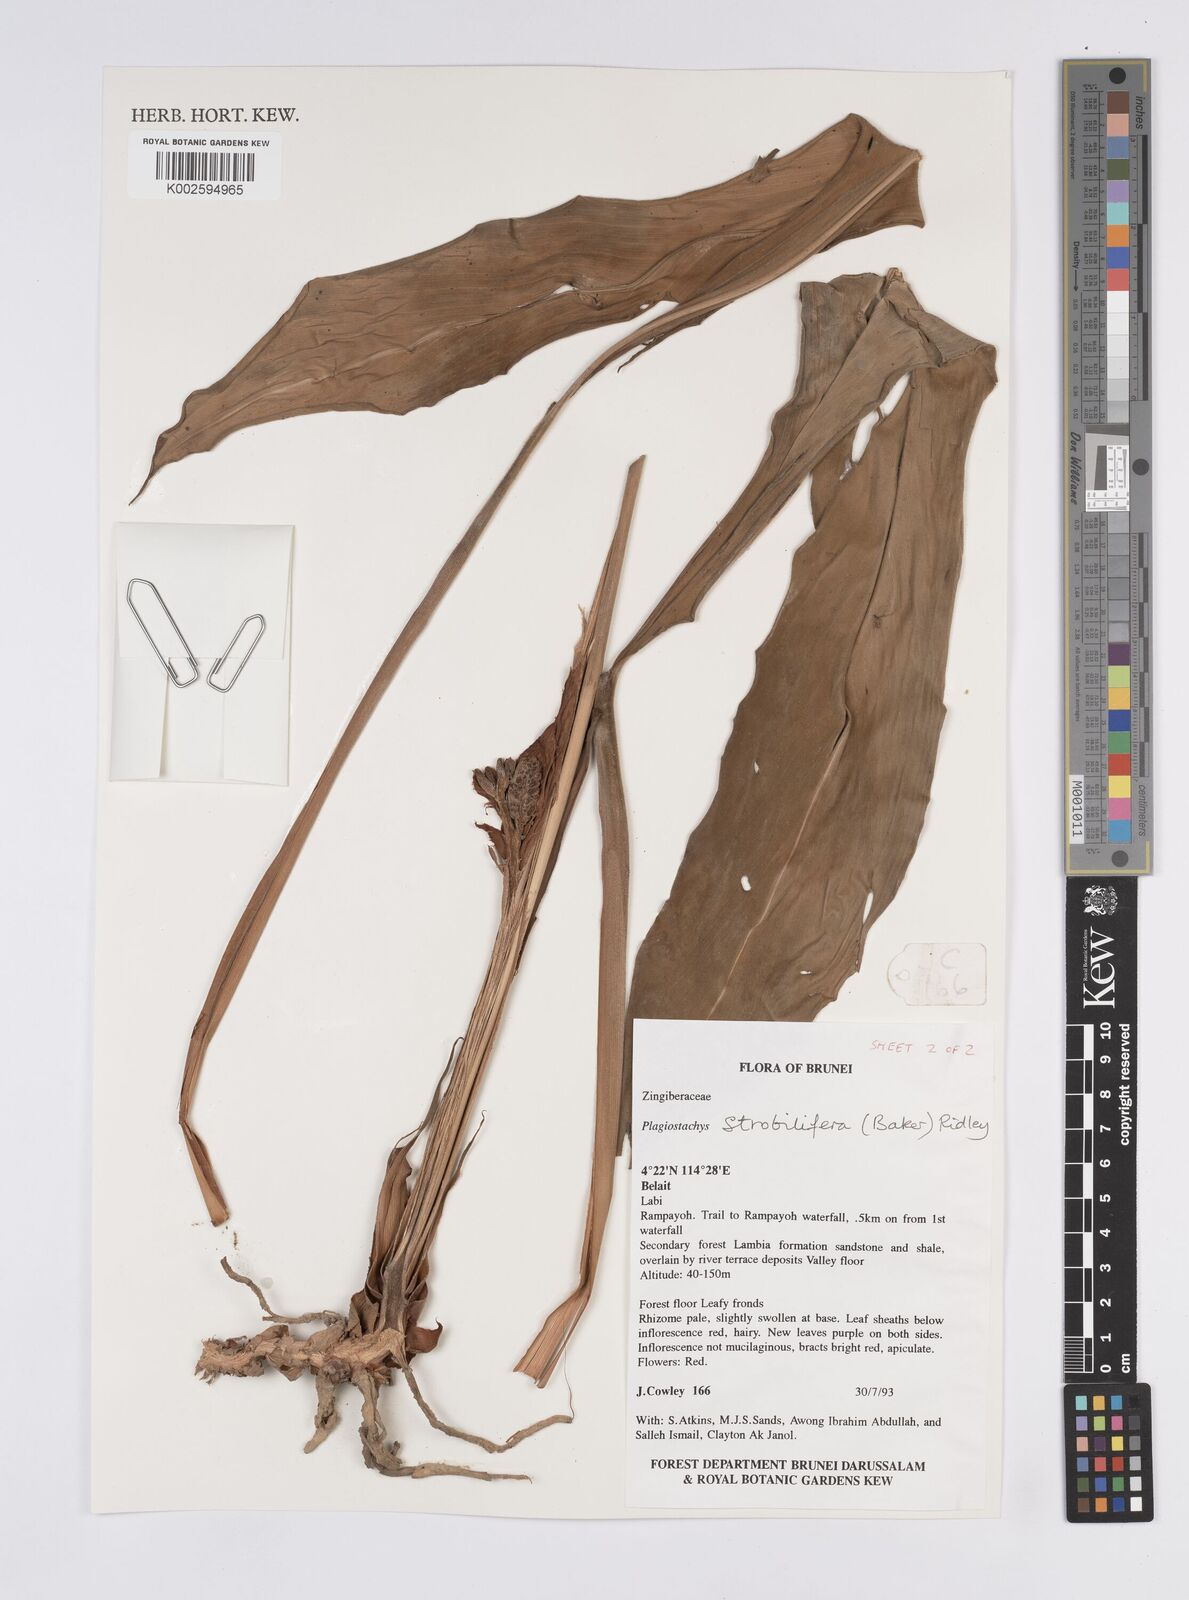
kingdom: Plantae
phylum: Tracheophyta
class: Liliopsida
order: Zingiberales
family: Zingiberaceae
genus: Plagiostachys
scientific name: Plagiostachys strobilifera
